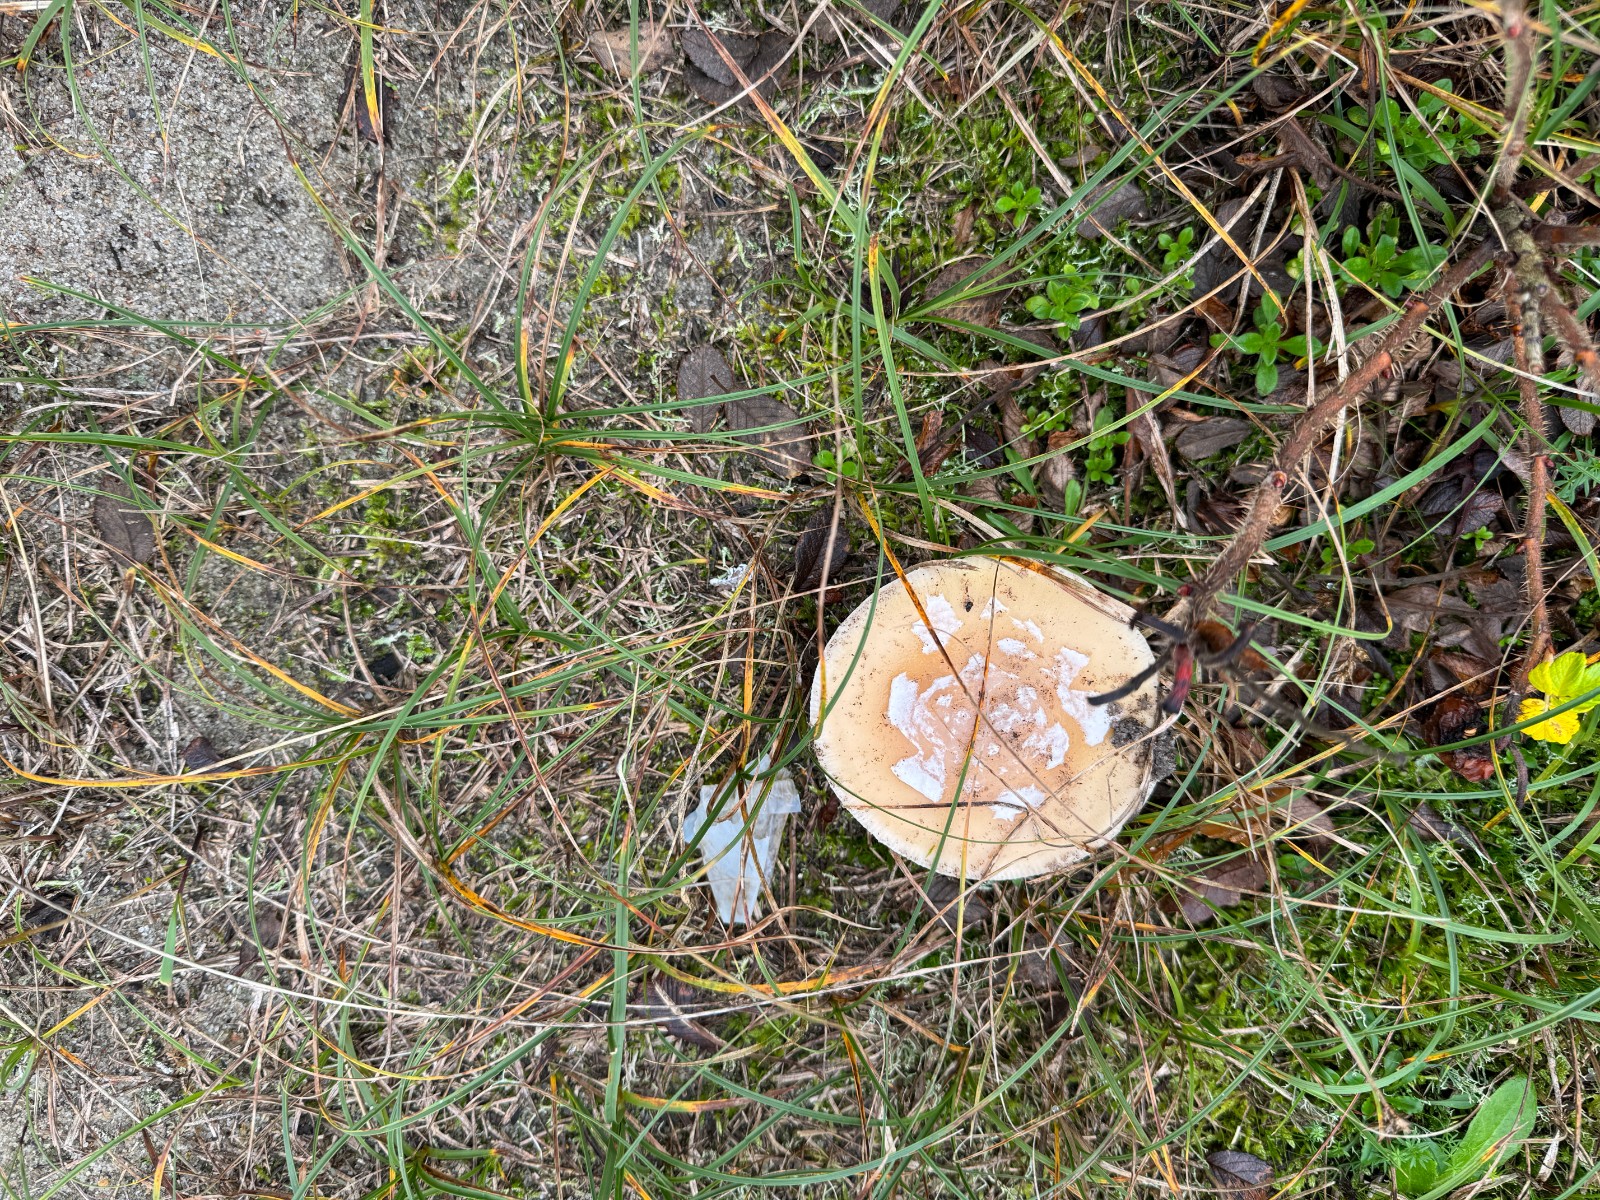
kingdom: Fungi
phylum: Basidiomycota
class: Agaricomycetes
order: Agaricales
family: Amanitaceae
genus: Amanita
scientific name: Amanita gemmata
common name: okkergul fluesvamp
